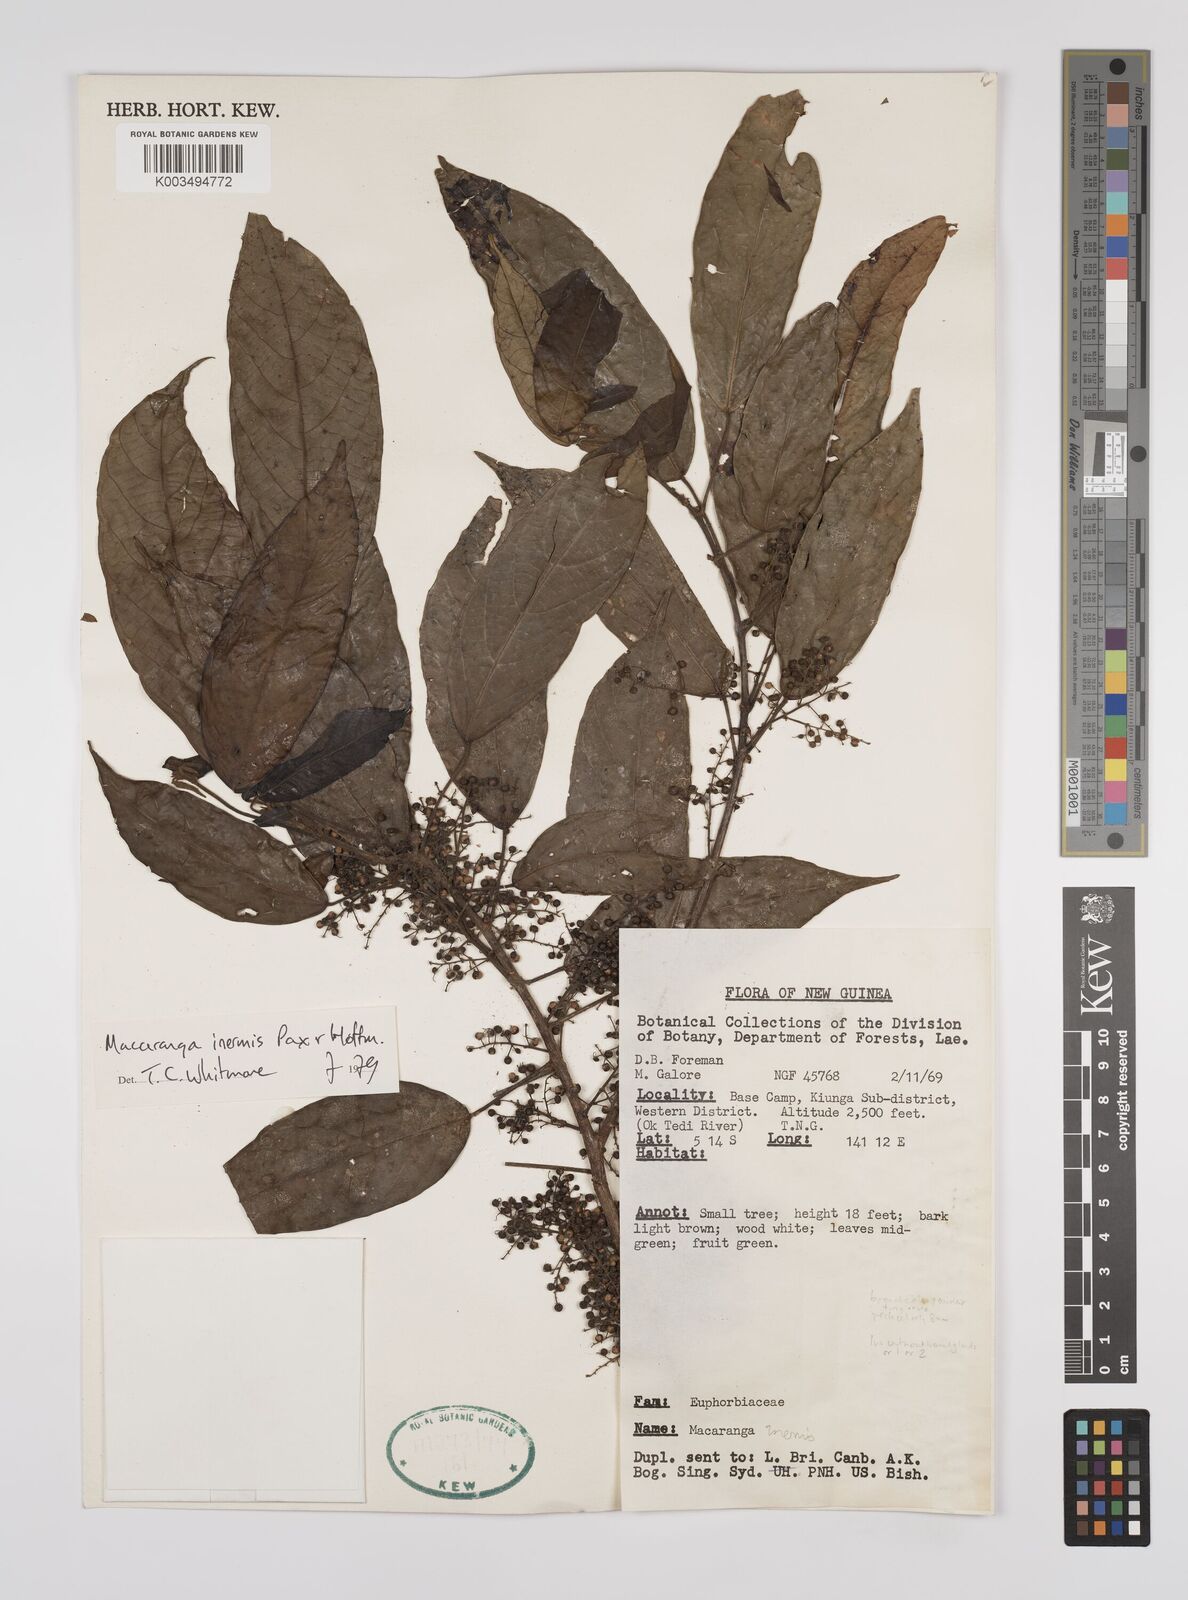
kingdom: Plantae
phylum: Tracheophyta
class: Magnoliopsida
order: Malpighiales
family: Euphorbiaceae
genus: Macaranga
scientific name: Macaranga inermis
